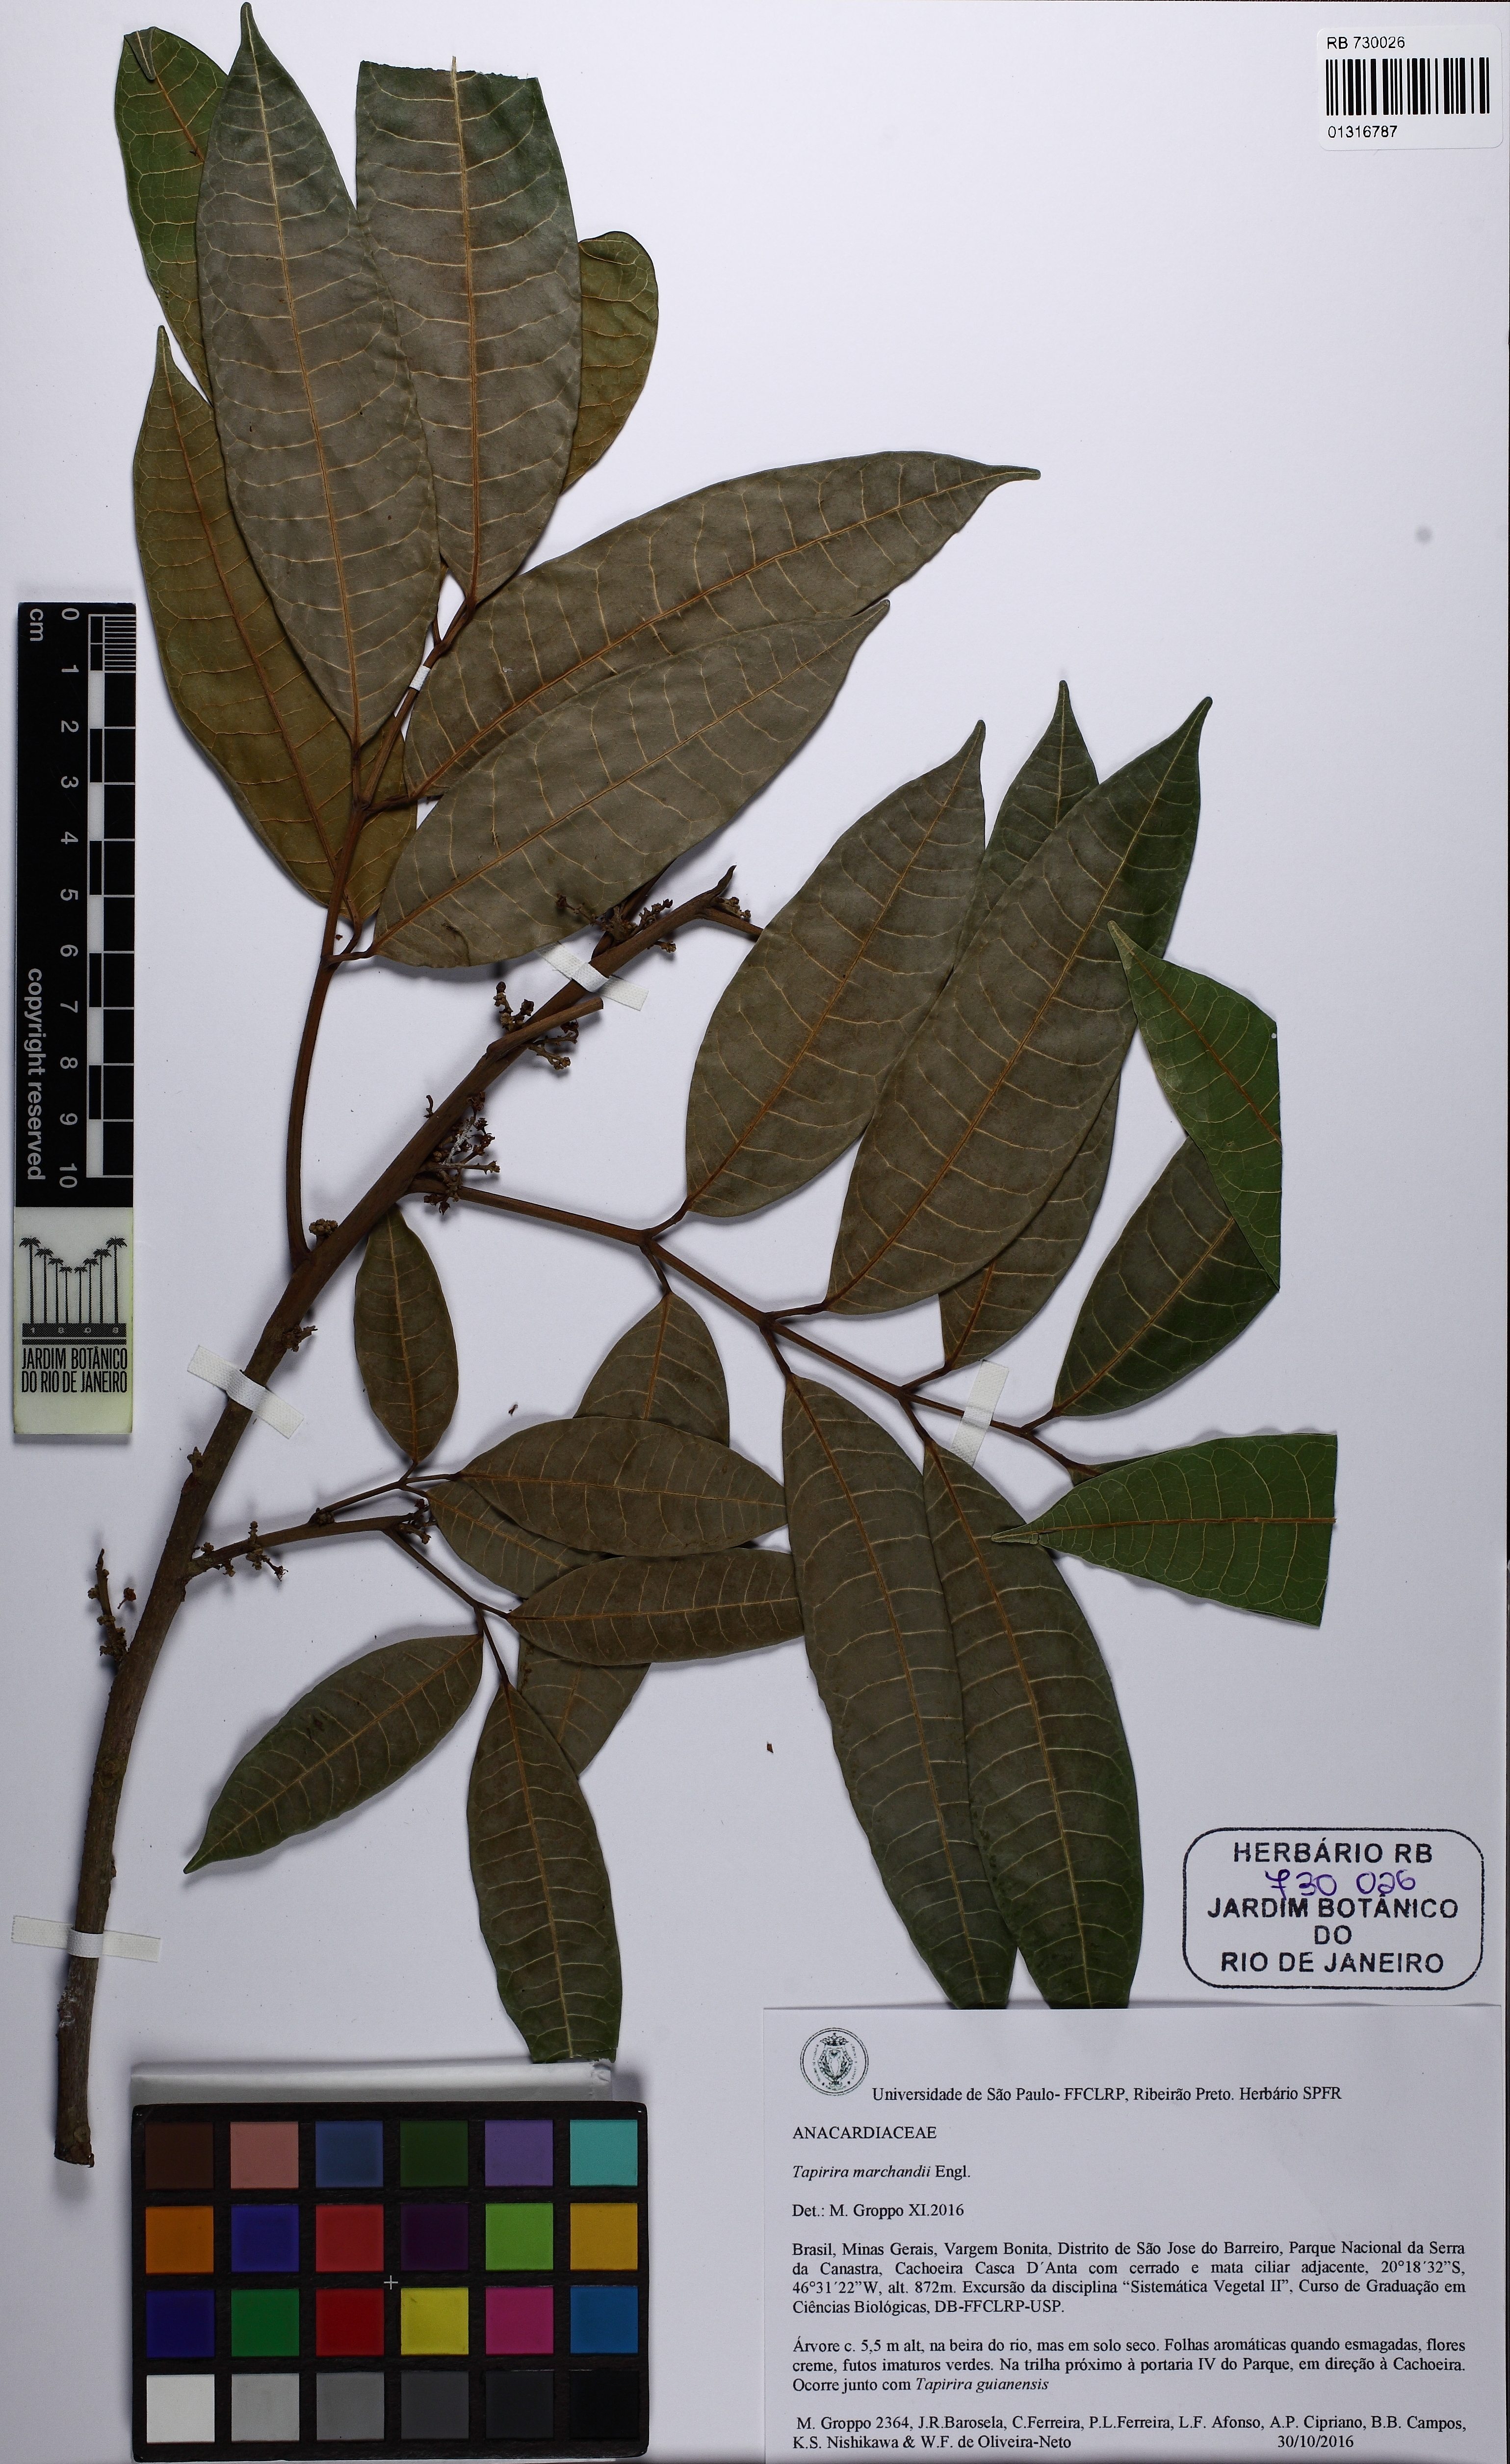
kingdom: Plantae
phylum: Tracheophyta
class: Magnoliopsida
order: Sapindales
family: Anacardiaceae
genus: Tapirira
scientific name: Tapirira obtusa
